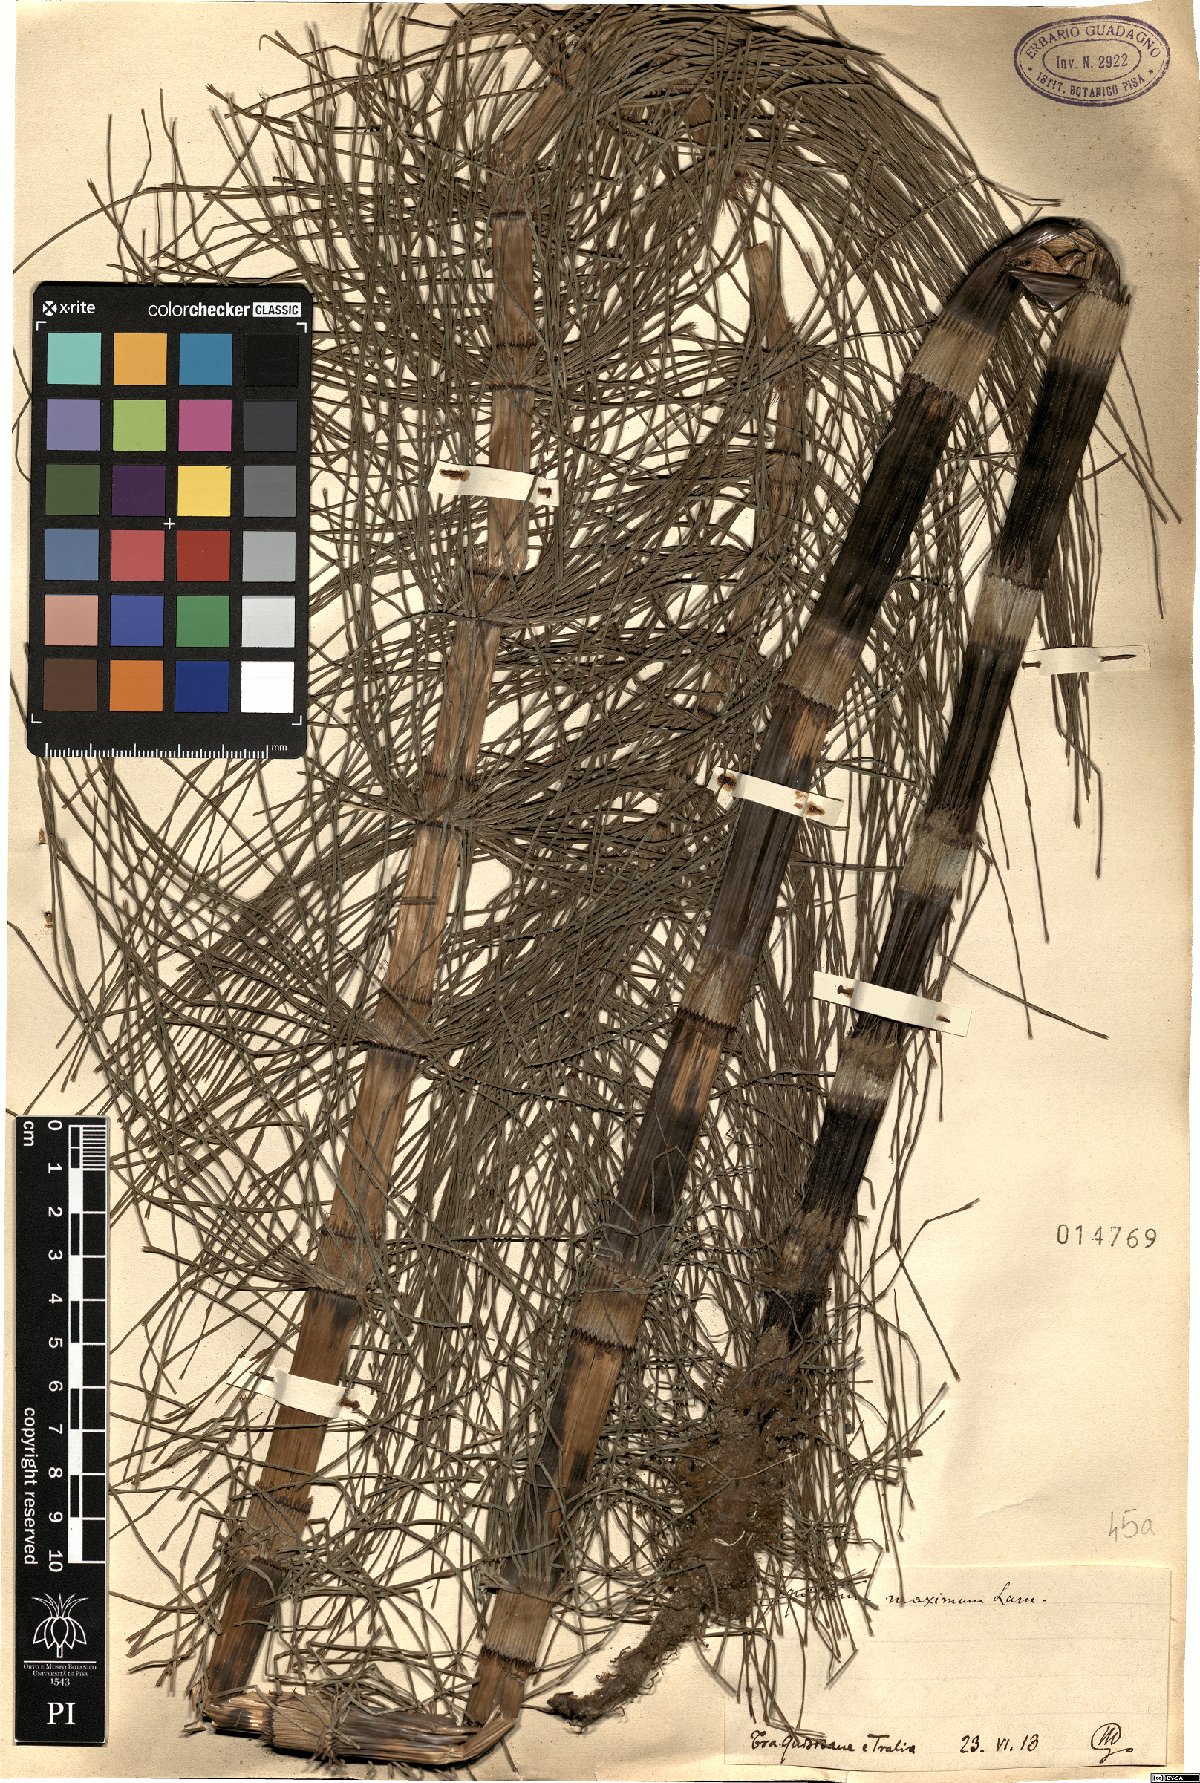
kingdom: Plantae
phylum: Tracheophyta
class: Polypodiopsida
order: Equisetales
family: Equisetaceae
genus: Equisetum
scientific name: Equisetum telmateia
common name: Great horsetail
